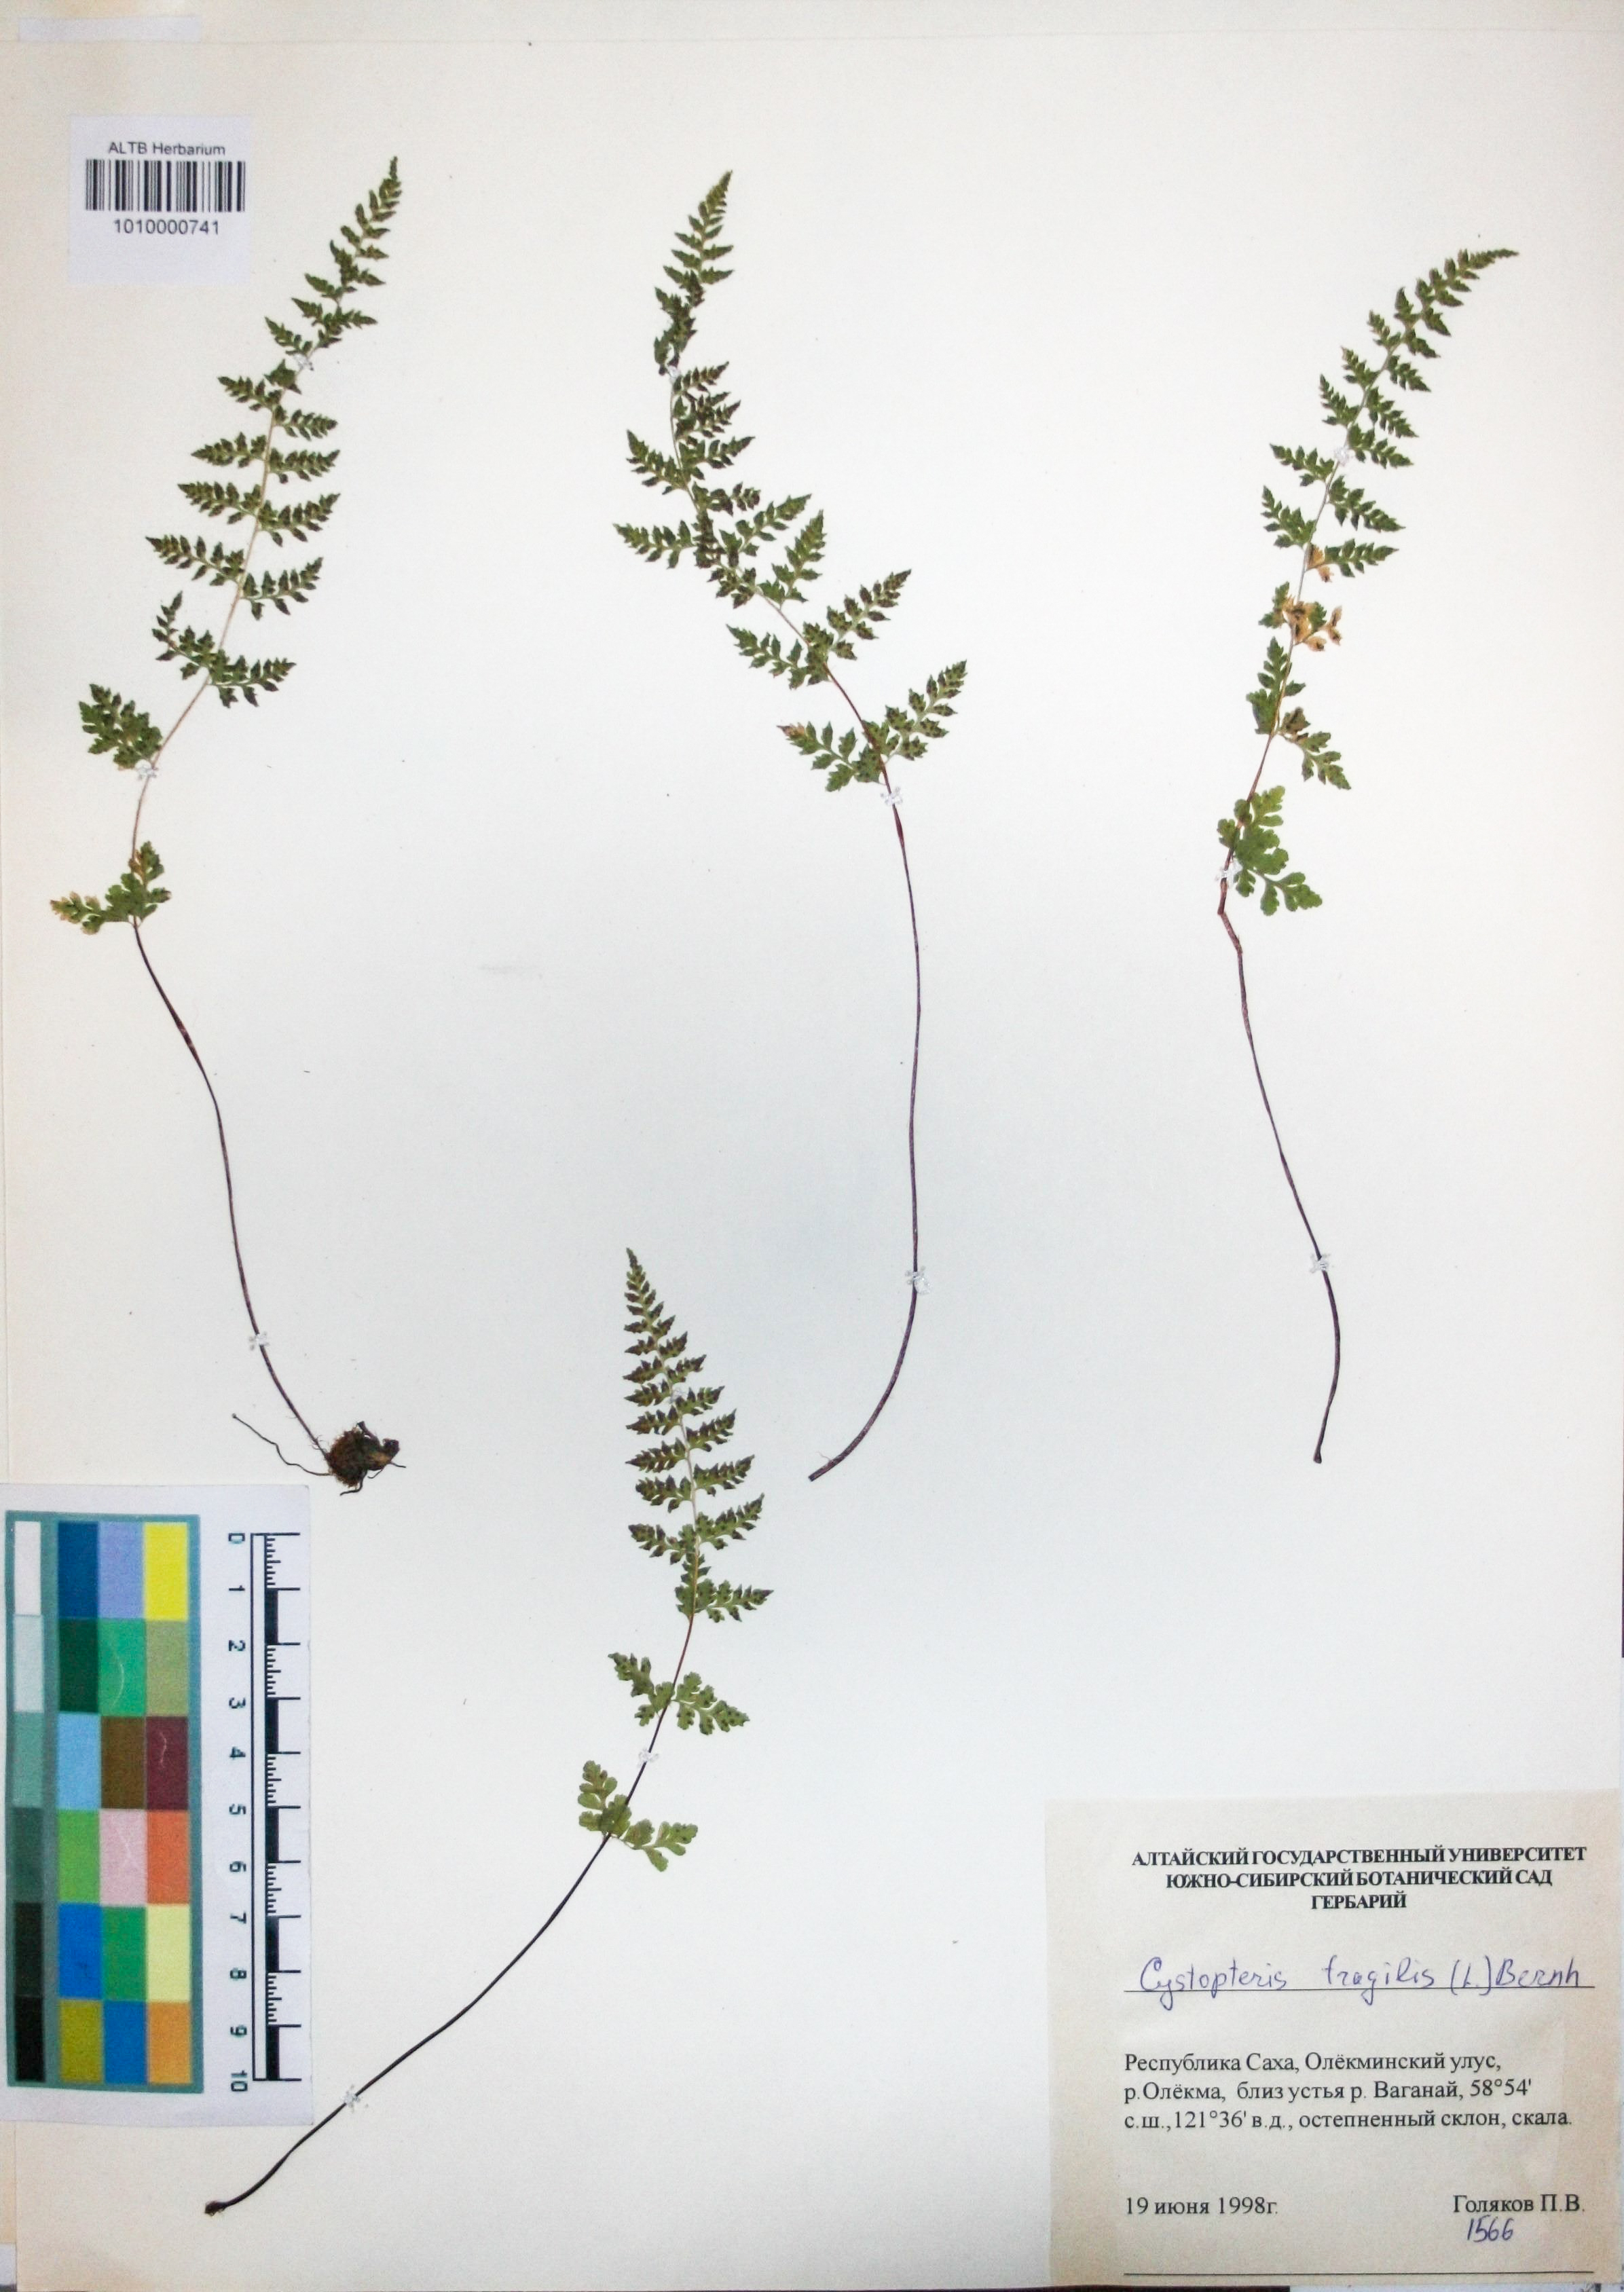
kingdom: Plantae
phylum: Tracheophyta
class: Polypodiopsida
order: Polypodiales
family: Cystopteridaceae
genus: Cystopteris
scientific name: Cystopteris fragilis
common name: Brittle bladder fern
